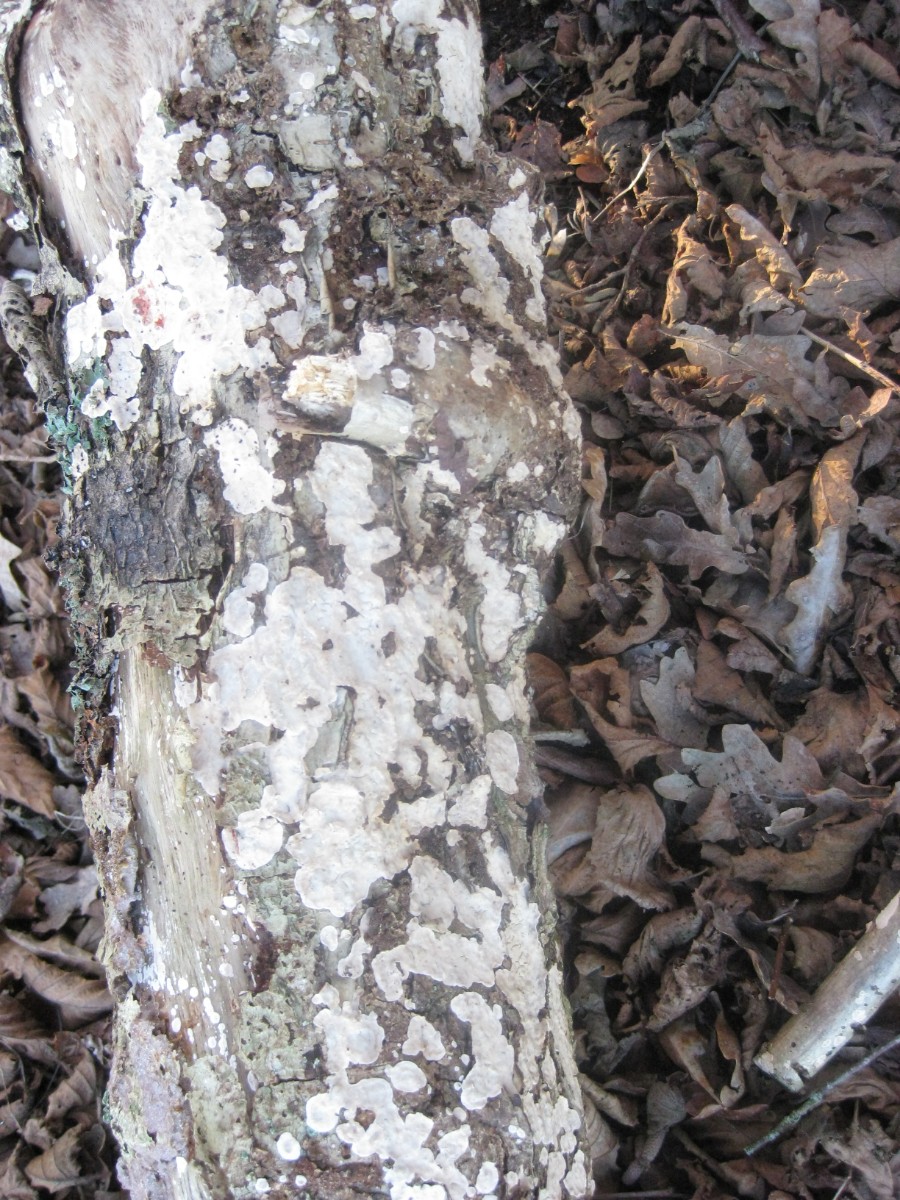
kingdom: Fungi
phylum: Basidiomycota
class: Agaricomycetes
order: Russulales
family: Stereaceae
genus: Stereum
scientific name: Stereum rugosum
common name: rynket lædersvamp
